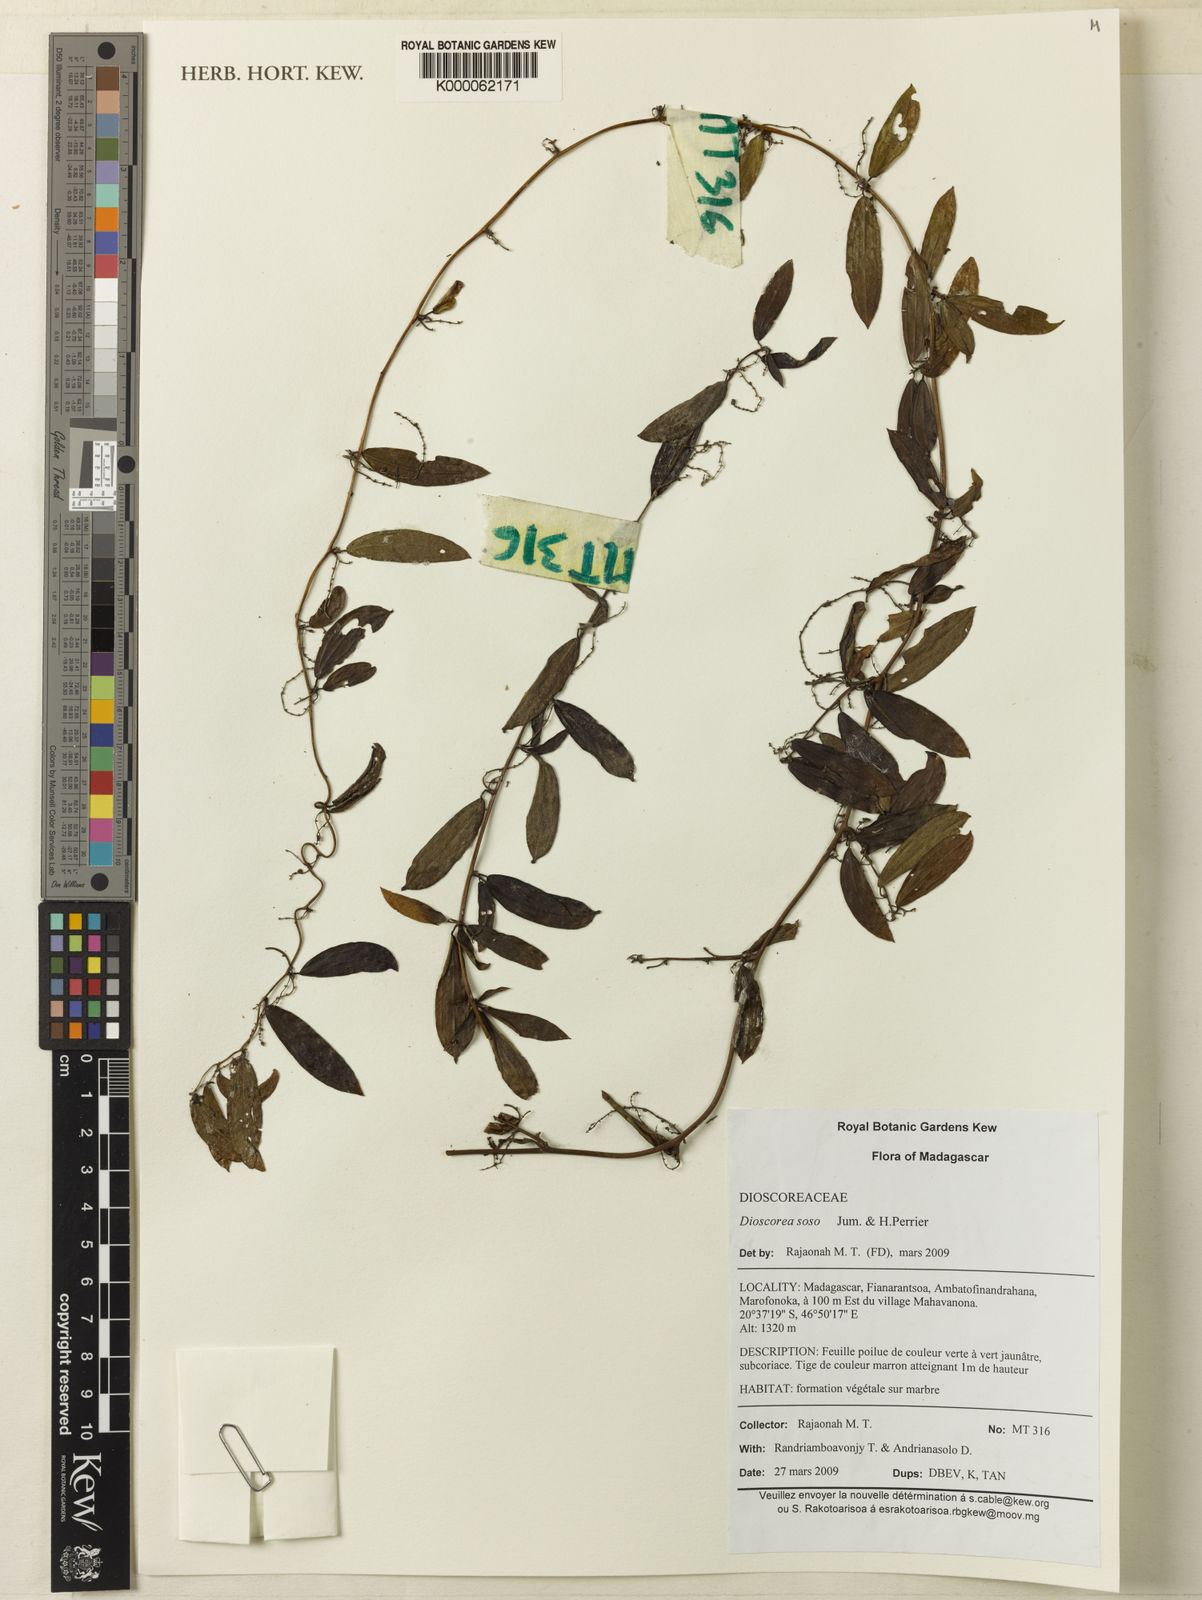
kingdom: Plantae
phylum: Tracheophyta
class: Liliopsida
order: Dioscoreales
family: Dioscoreaceae
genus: Dioscorea
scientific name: Dioscorea soso
